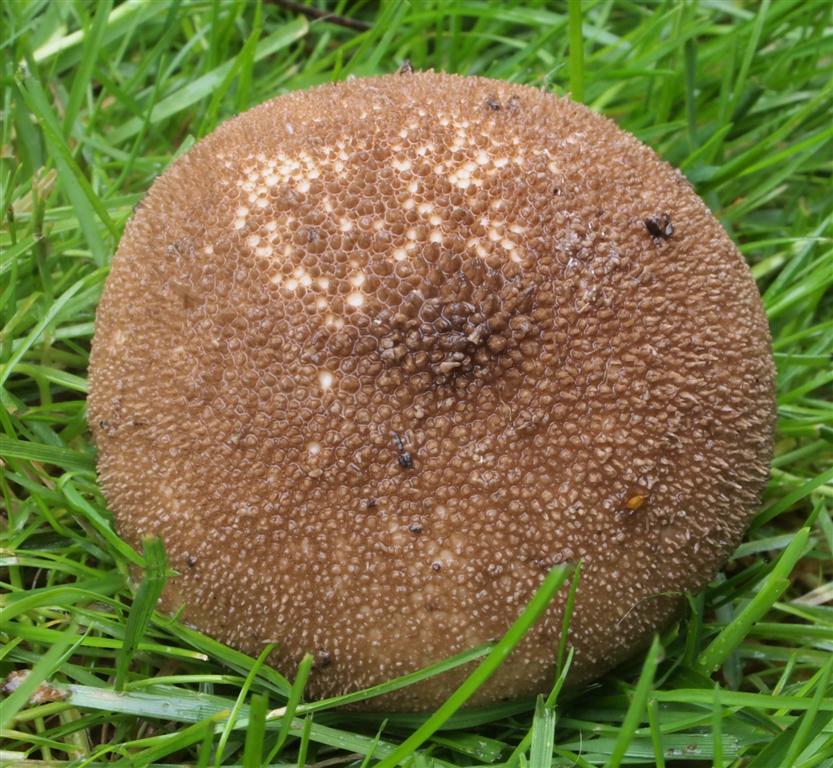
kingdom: Fungi
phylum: Basidiomycota
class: Agaricomycetes
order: Agaricales
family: Lycoperdaceae
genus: Lycoperdon
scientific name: Lycoperdon nigrescens
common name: sortagtig støvbold
